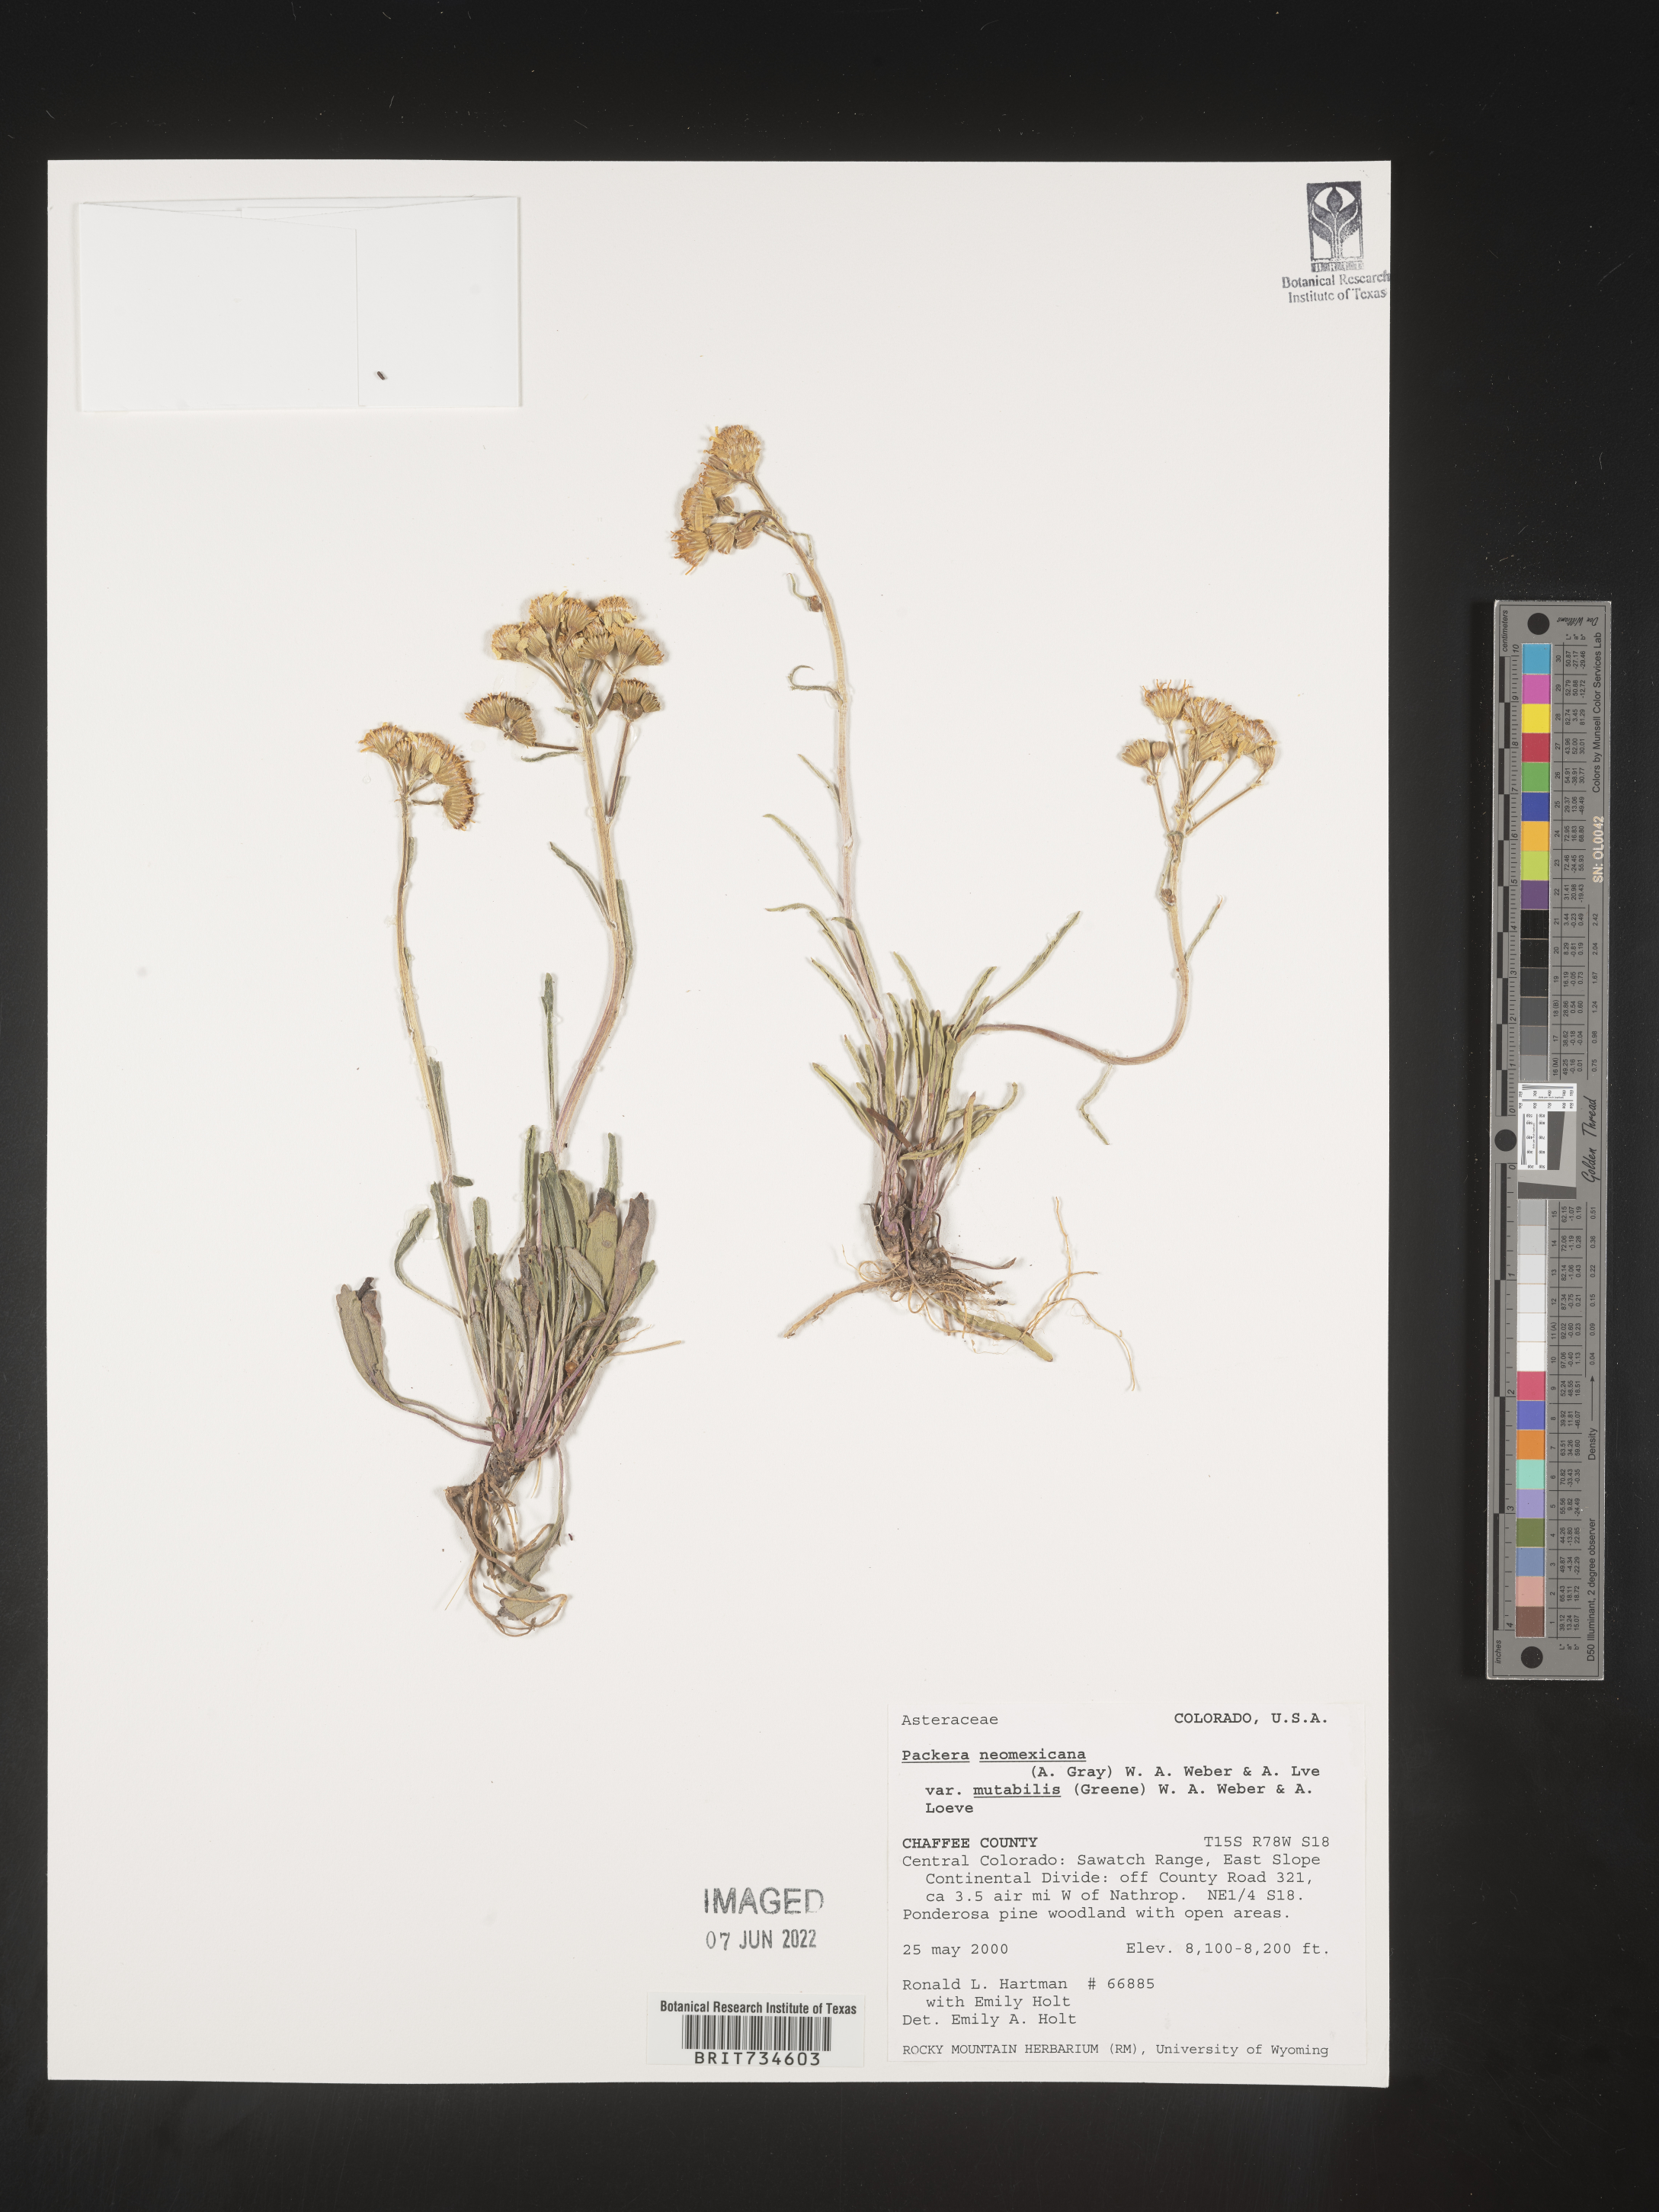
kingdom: Plantae
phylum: Tracheophyta
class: Magnoliopsida
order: Asterales
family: Asteraceae
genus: Packera
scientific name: Packera neomexicana
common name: New mexico butterweed
